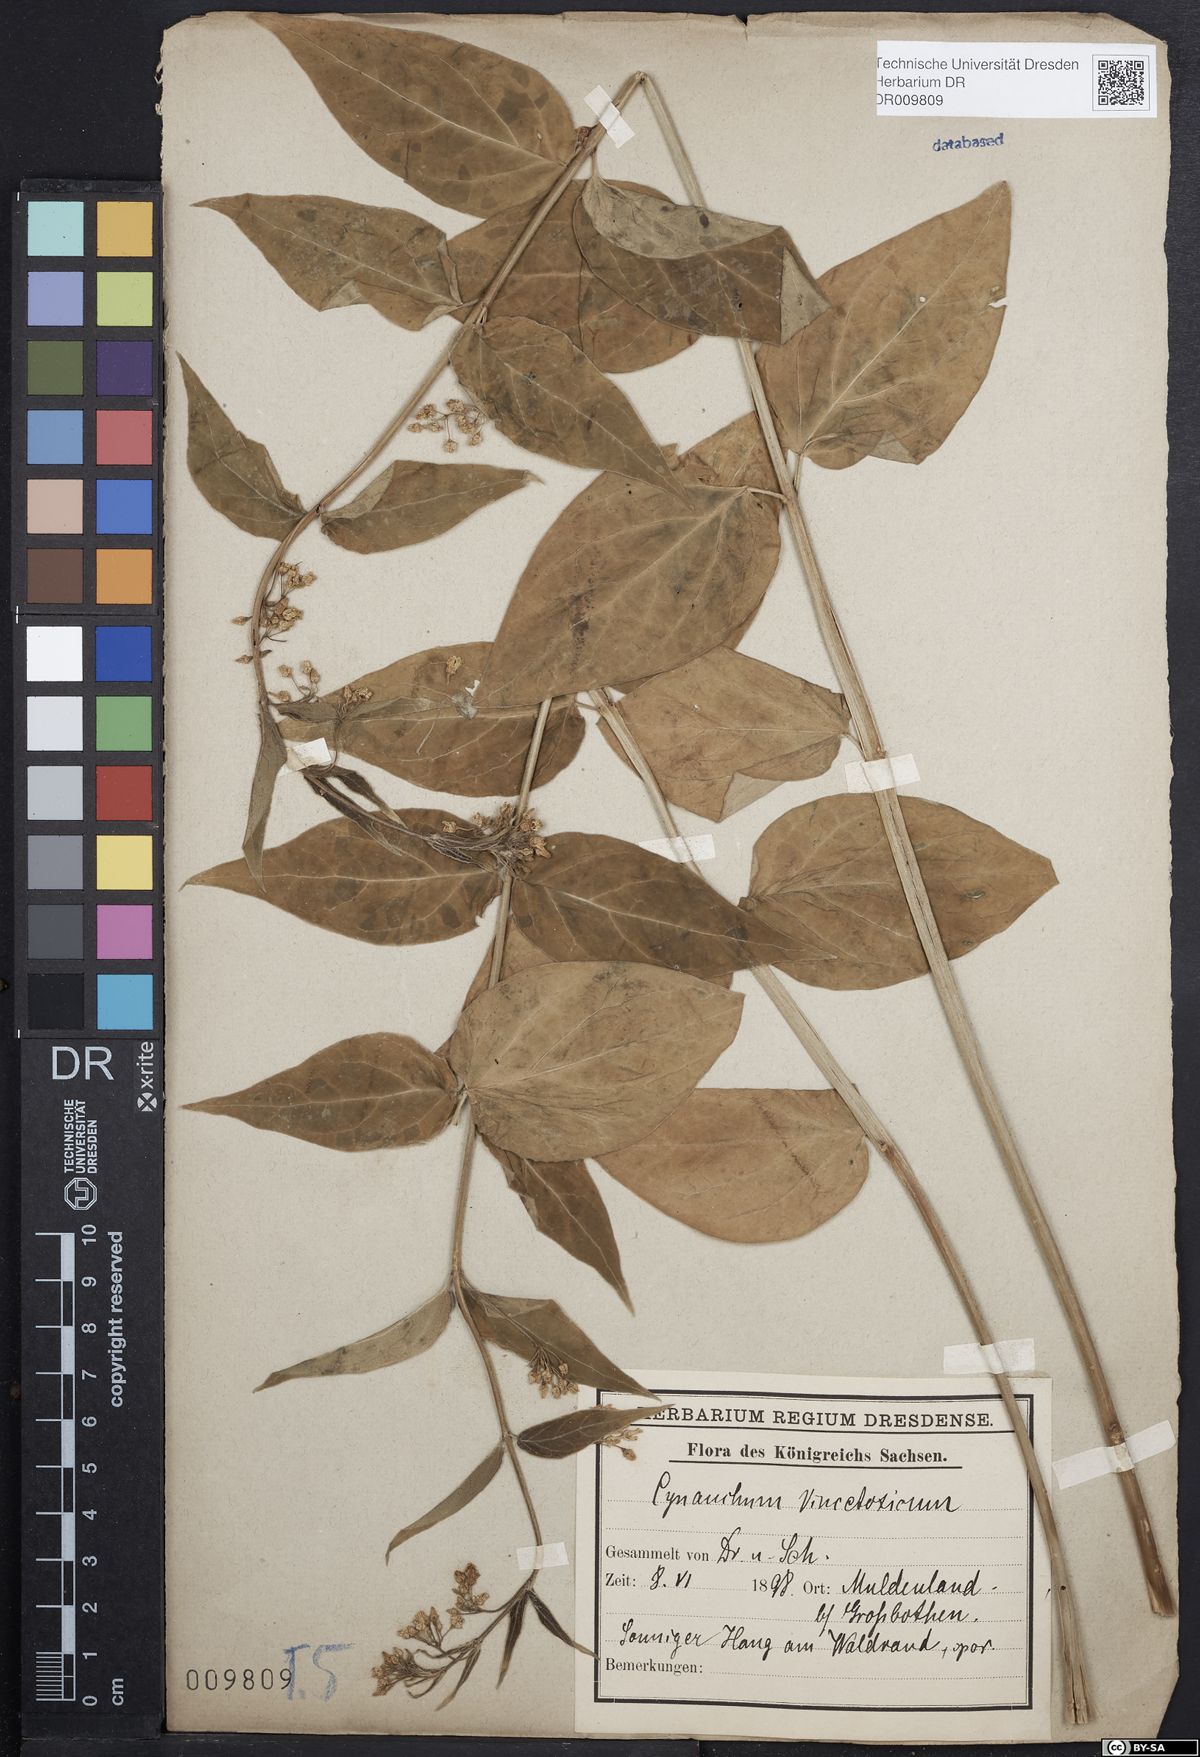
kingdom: Plantae
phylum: Tracheophyta
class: Magnoliopsida
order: Gentianales
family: Apocynaceae
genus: Vincetoxicum
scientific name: Vincetoxicum hirundinaria
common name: White swallowwort
